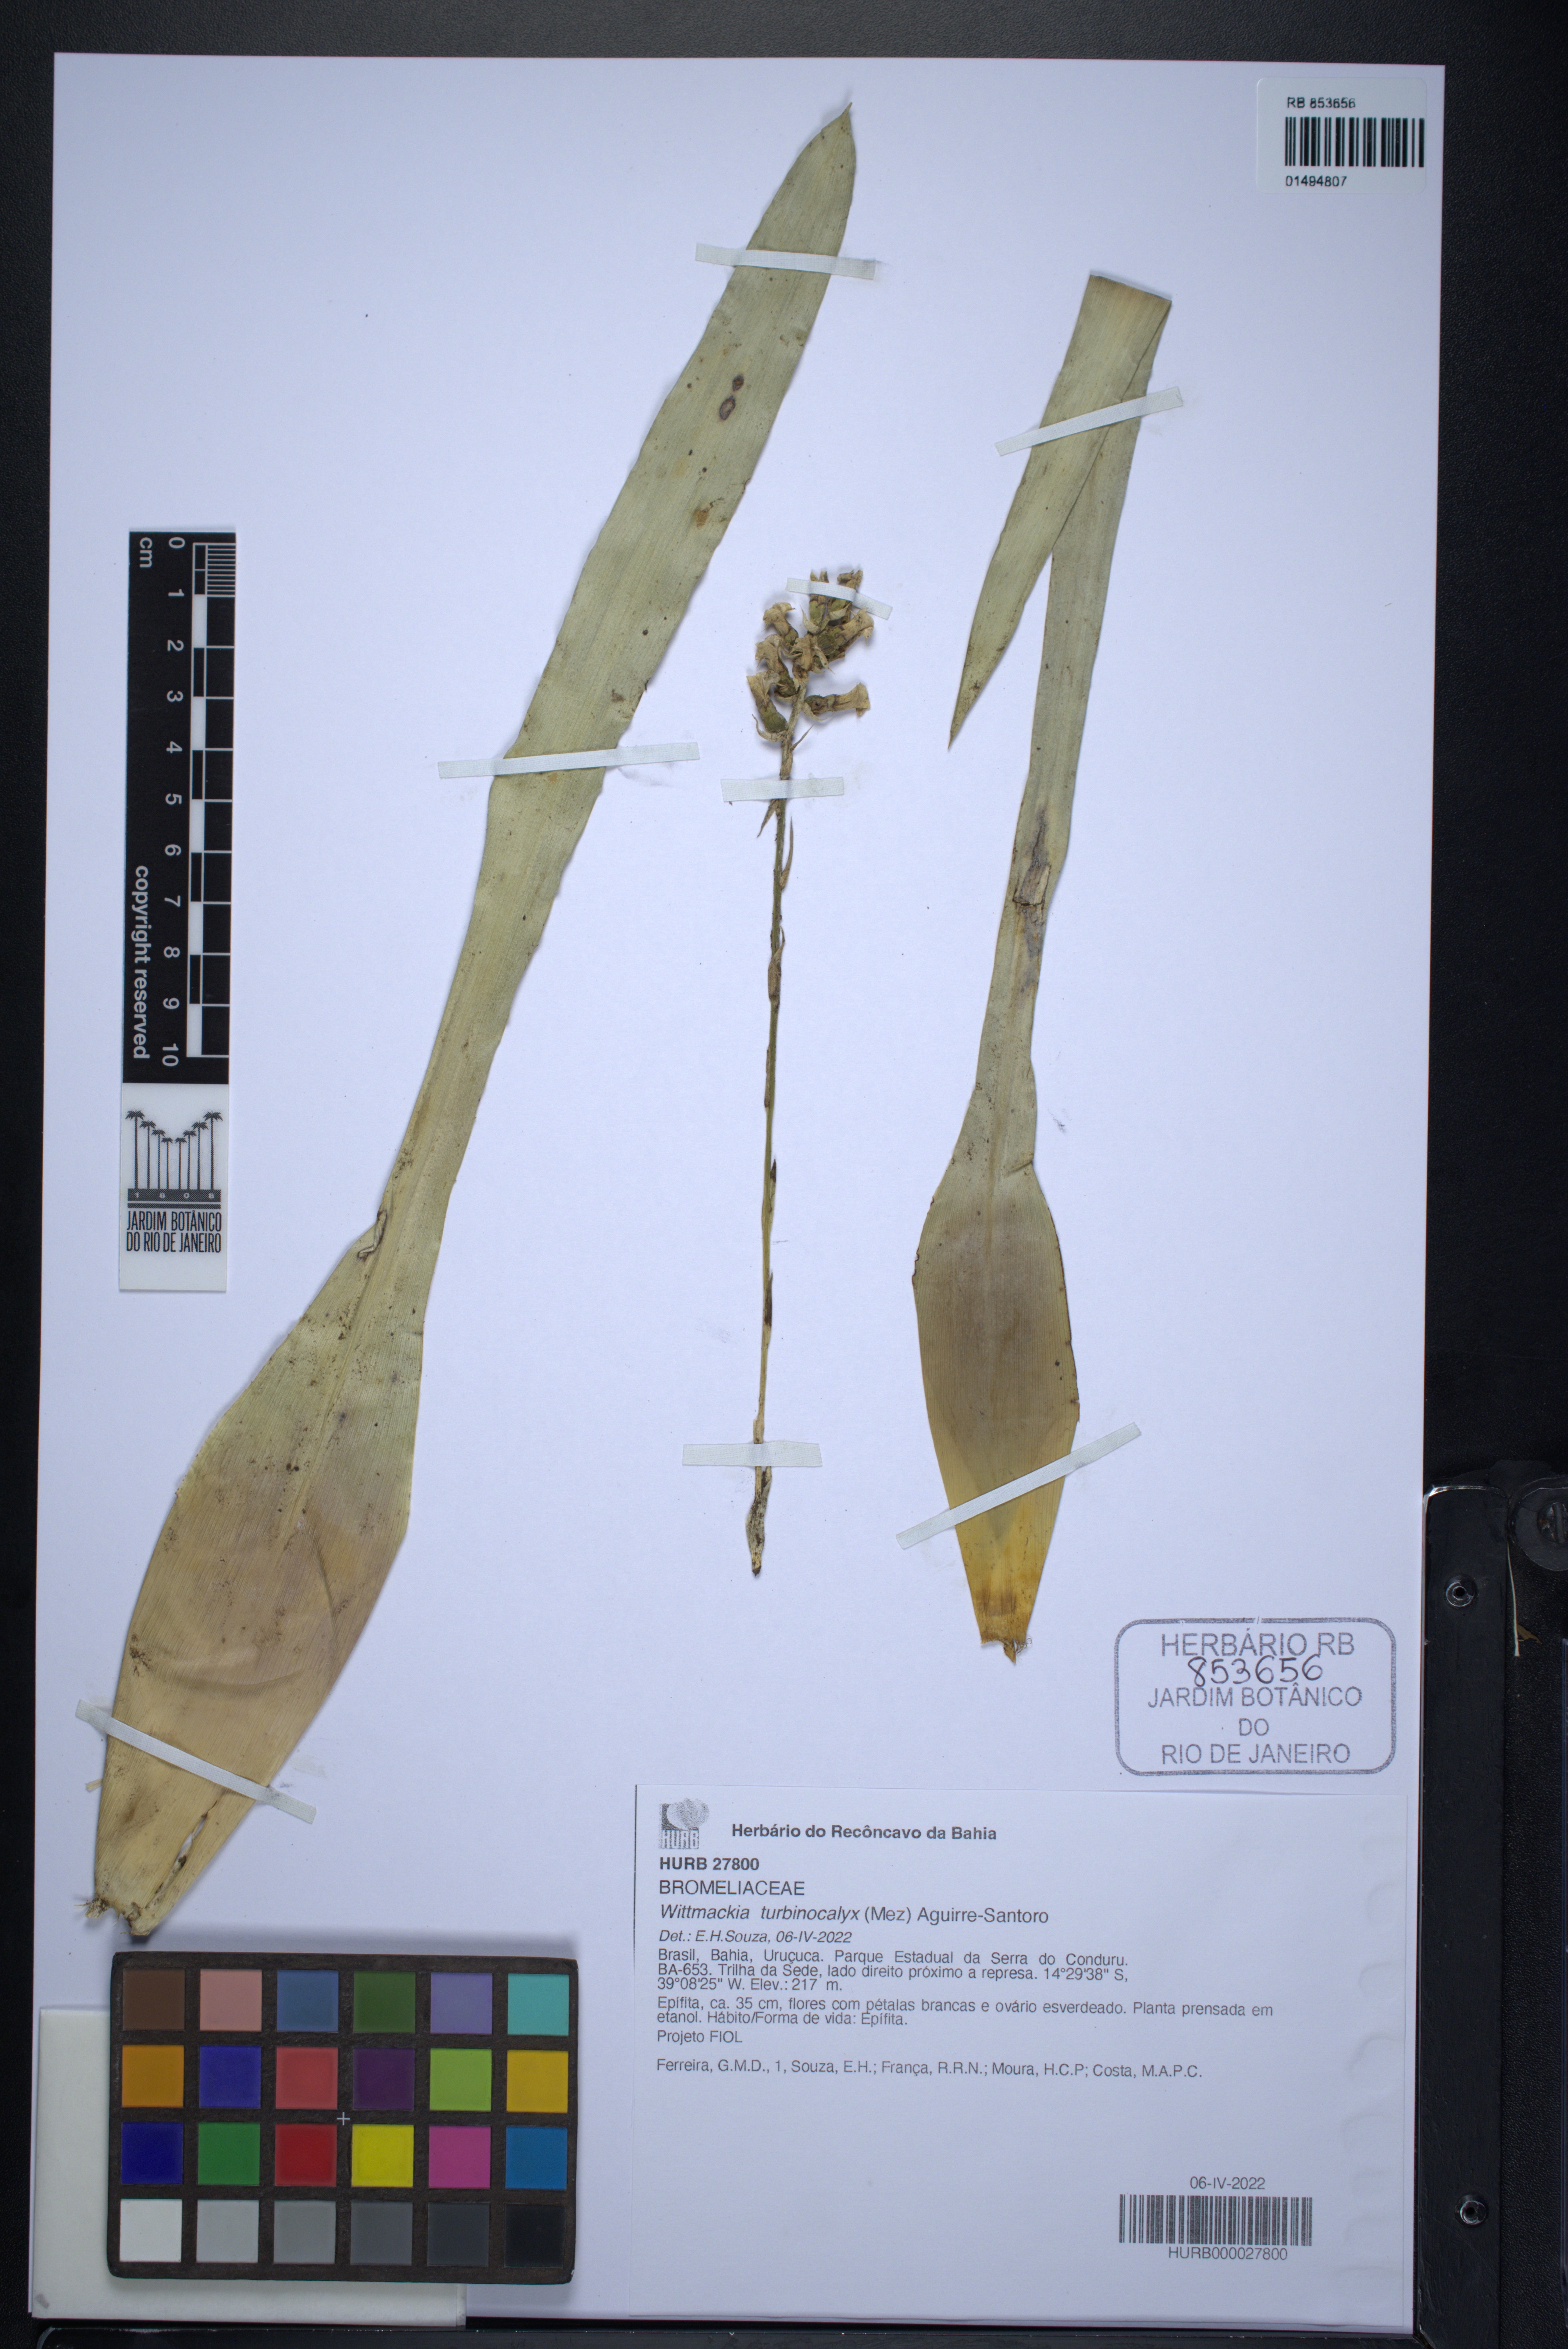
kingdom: Plantae
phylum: Tracheophyta
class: Liliopsida
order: Poales
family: Bromeliaceae
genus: Wittmackia
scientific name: Wittmackia turbinocalyx
